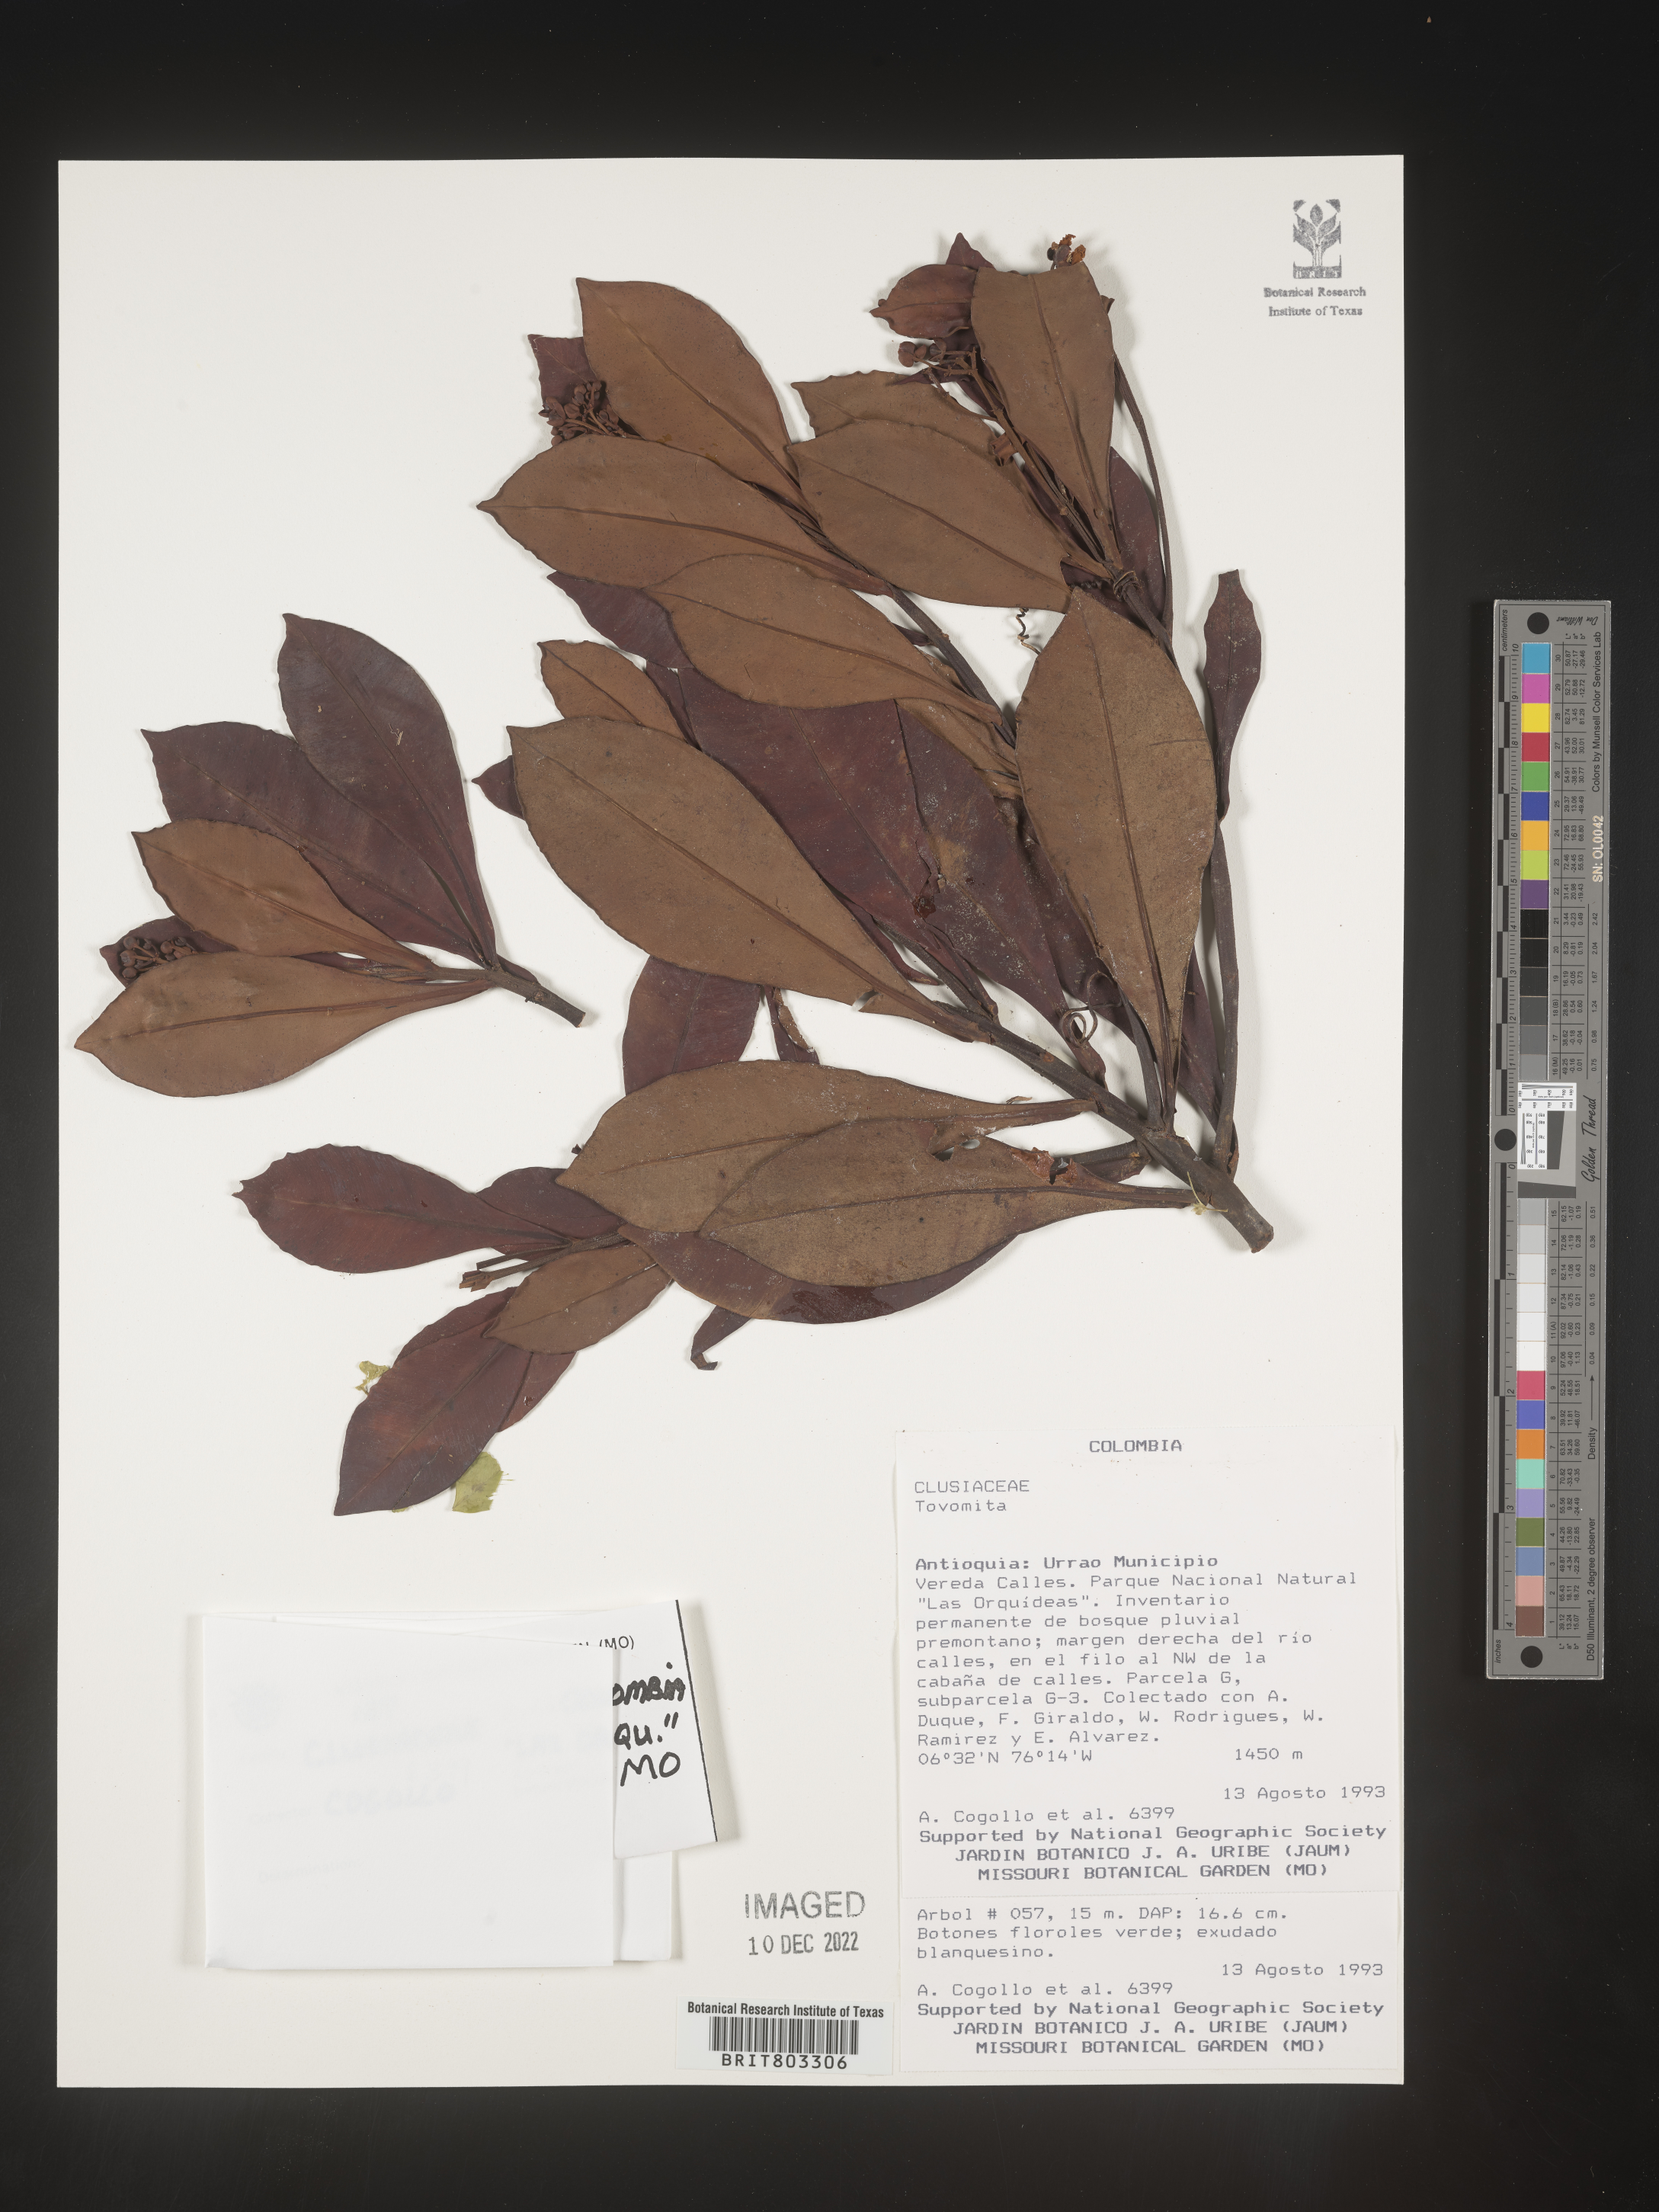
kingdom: Plantae
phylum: Tracheophyta
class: Magnoliopsida
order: Malpighiales
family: Clusiaceae
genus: Tovomita
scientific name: Tovomita
